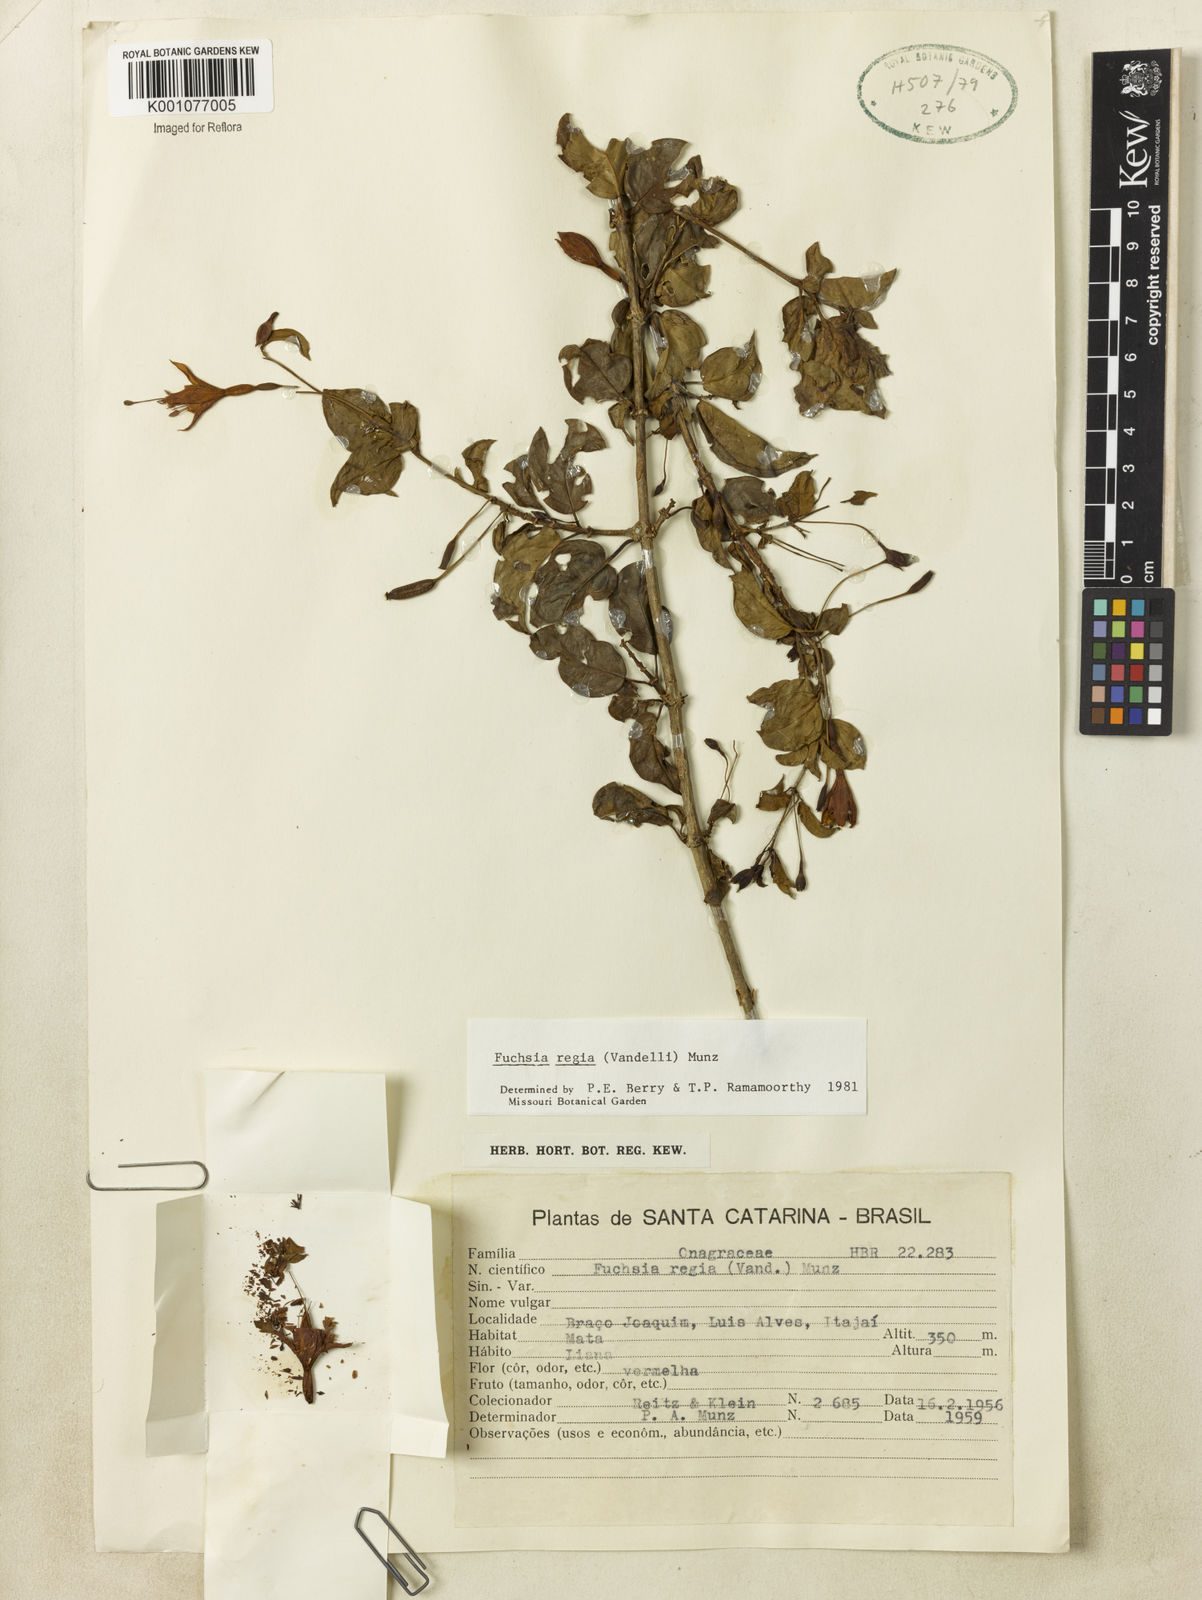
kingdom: Plantae
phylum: Tracheophyta
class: Magnoliopsida
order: Myrtales
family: Onagraceae
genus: Fuchsia
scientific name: Fuchsia regia
